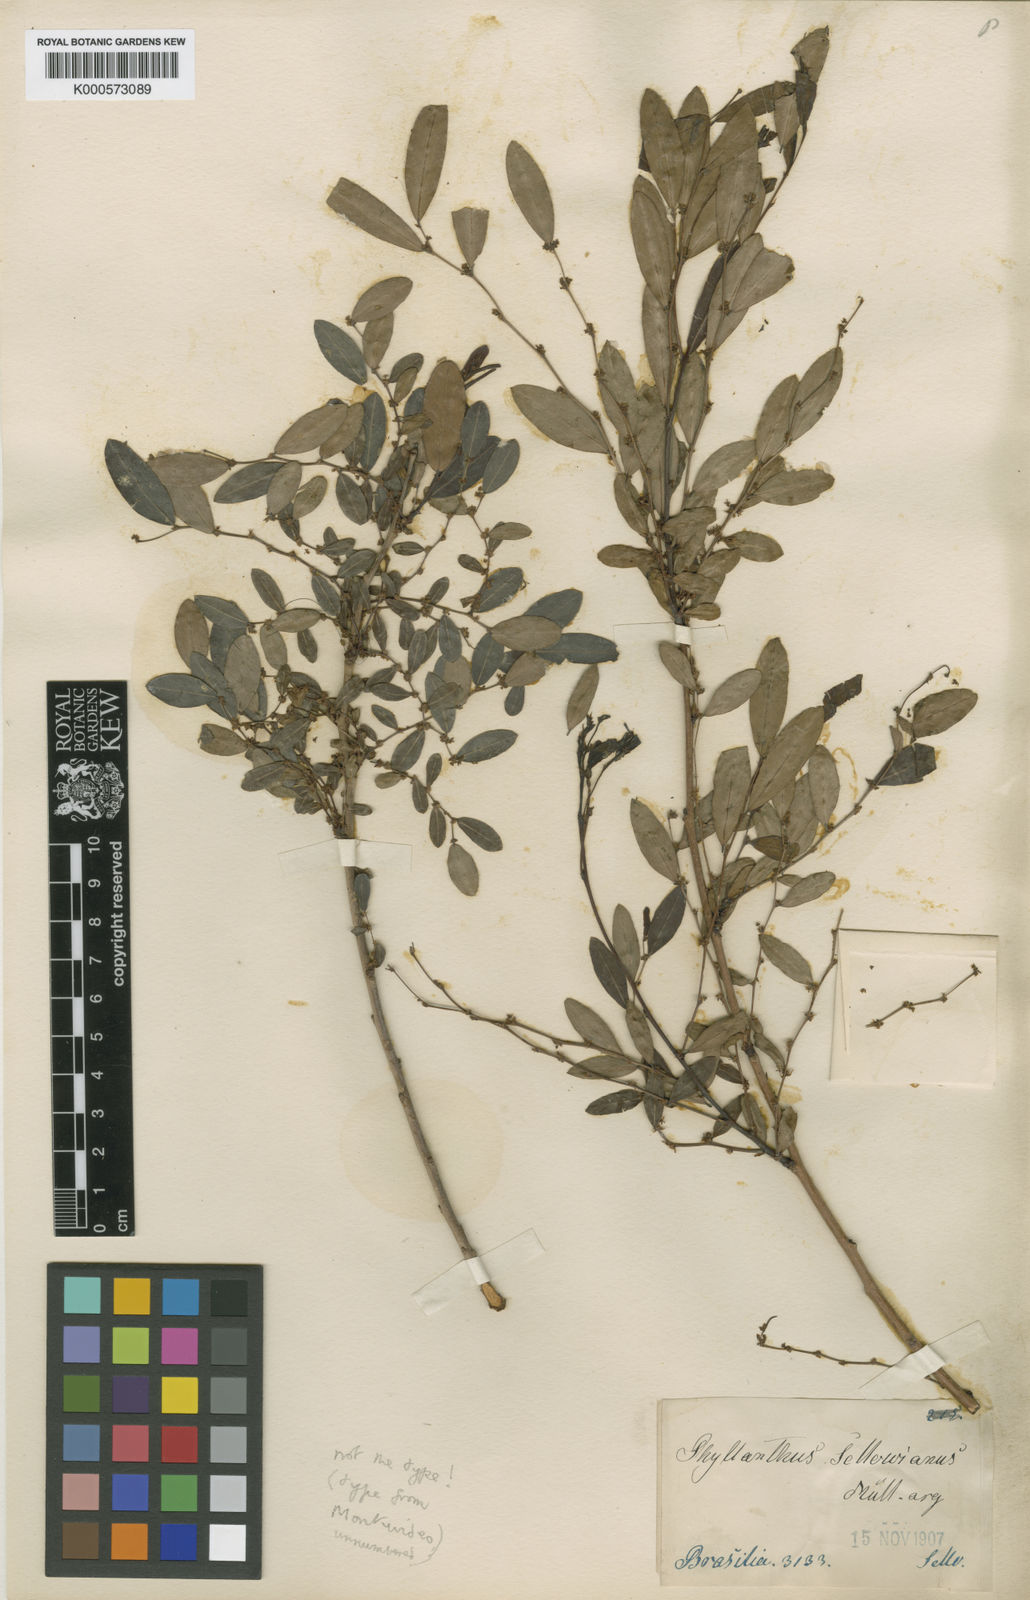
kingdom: Plantae
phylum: Tracheophyta
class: Magnoliopsida
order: Malpighiales
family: Phyllanthaceae
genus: Phyllanthus
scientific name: Phyllanthus
